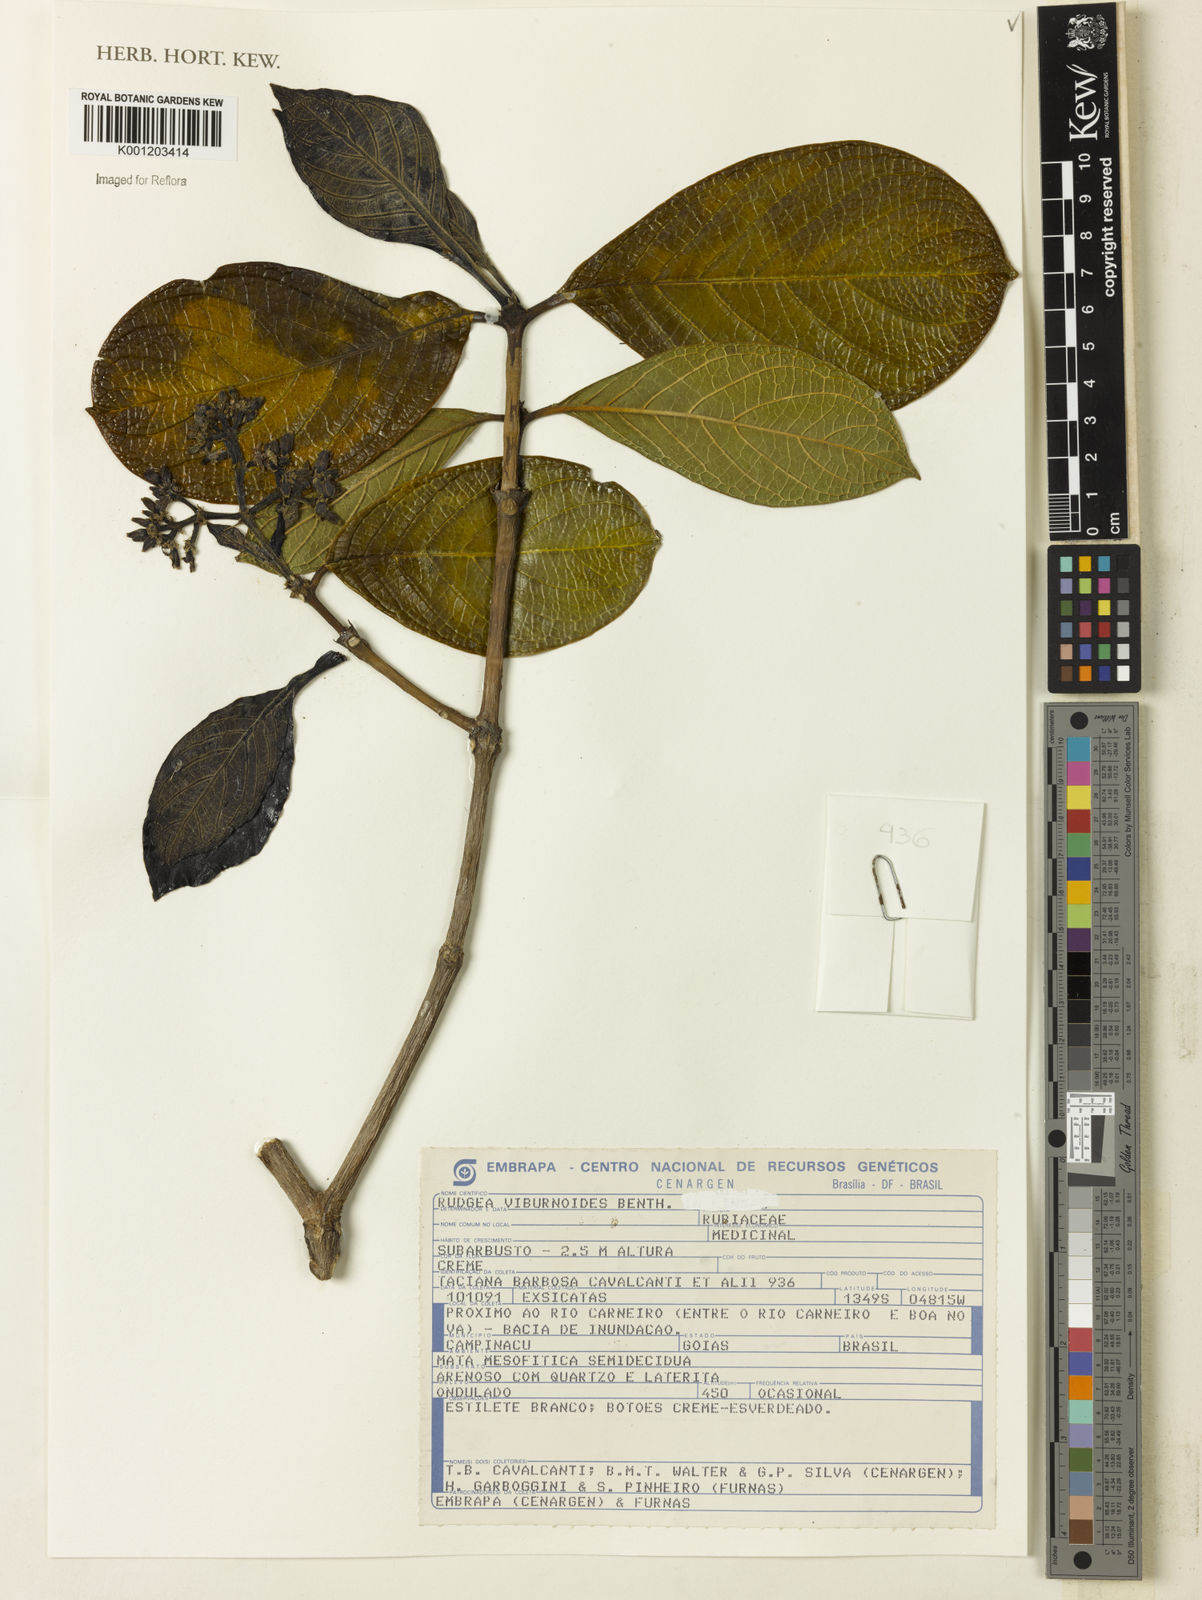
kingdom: Plantae
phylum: Tracheophyta
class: Magnoliopsida
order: Gentianales
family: Rubiaceae
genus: Rudgea
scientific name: Rudgea viburnoides
